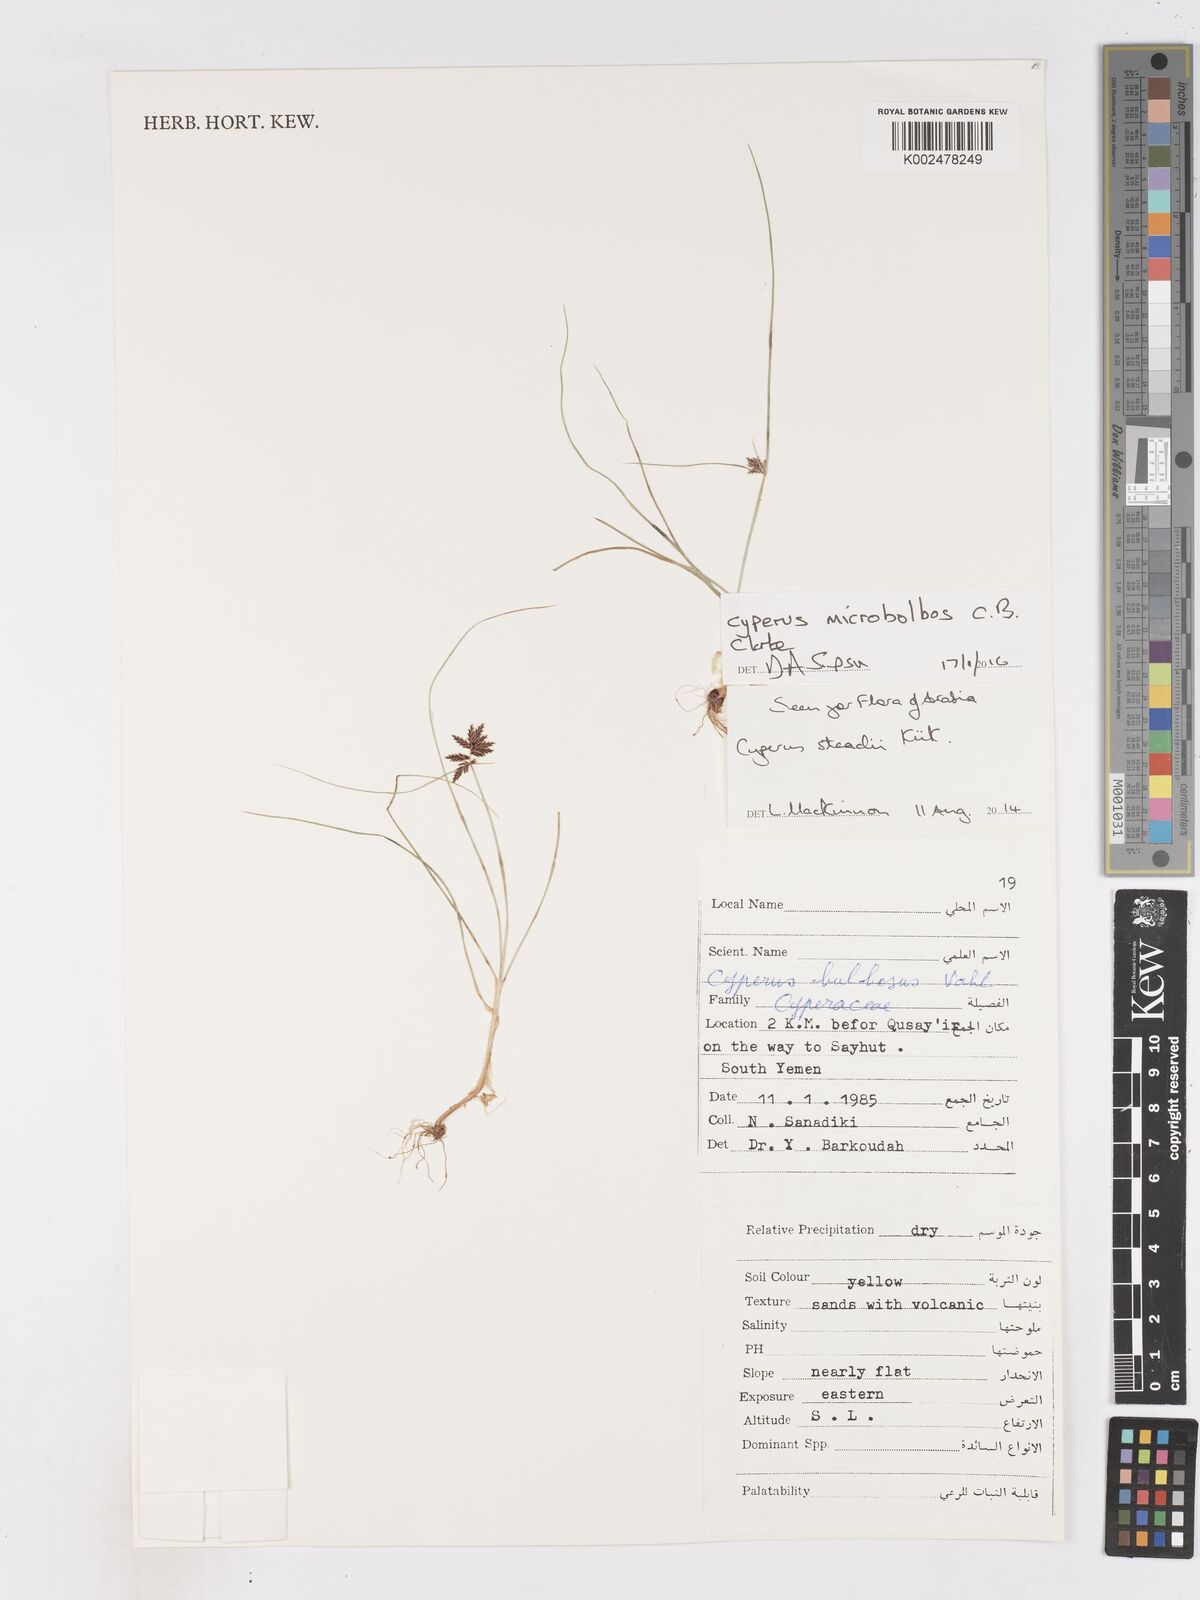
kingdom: Plantae
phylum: Tracheophyta
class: Liliopsida
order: Poales
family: Cyperaceae
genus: Cyperus
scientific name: Cyperus microbolbos
